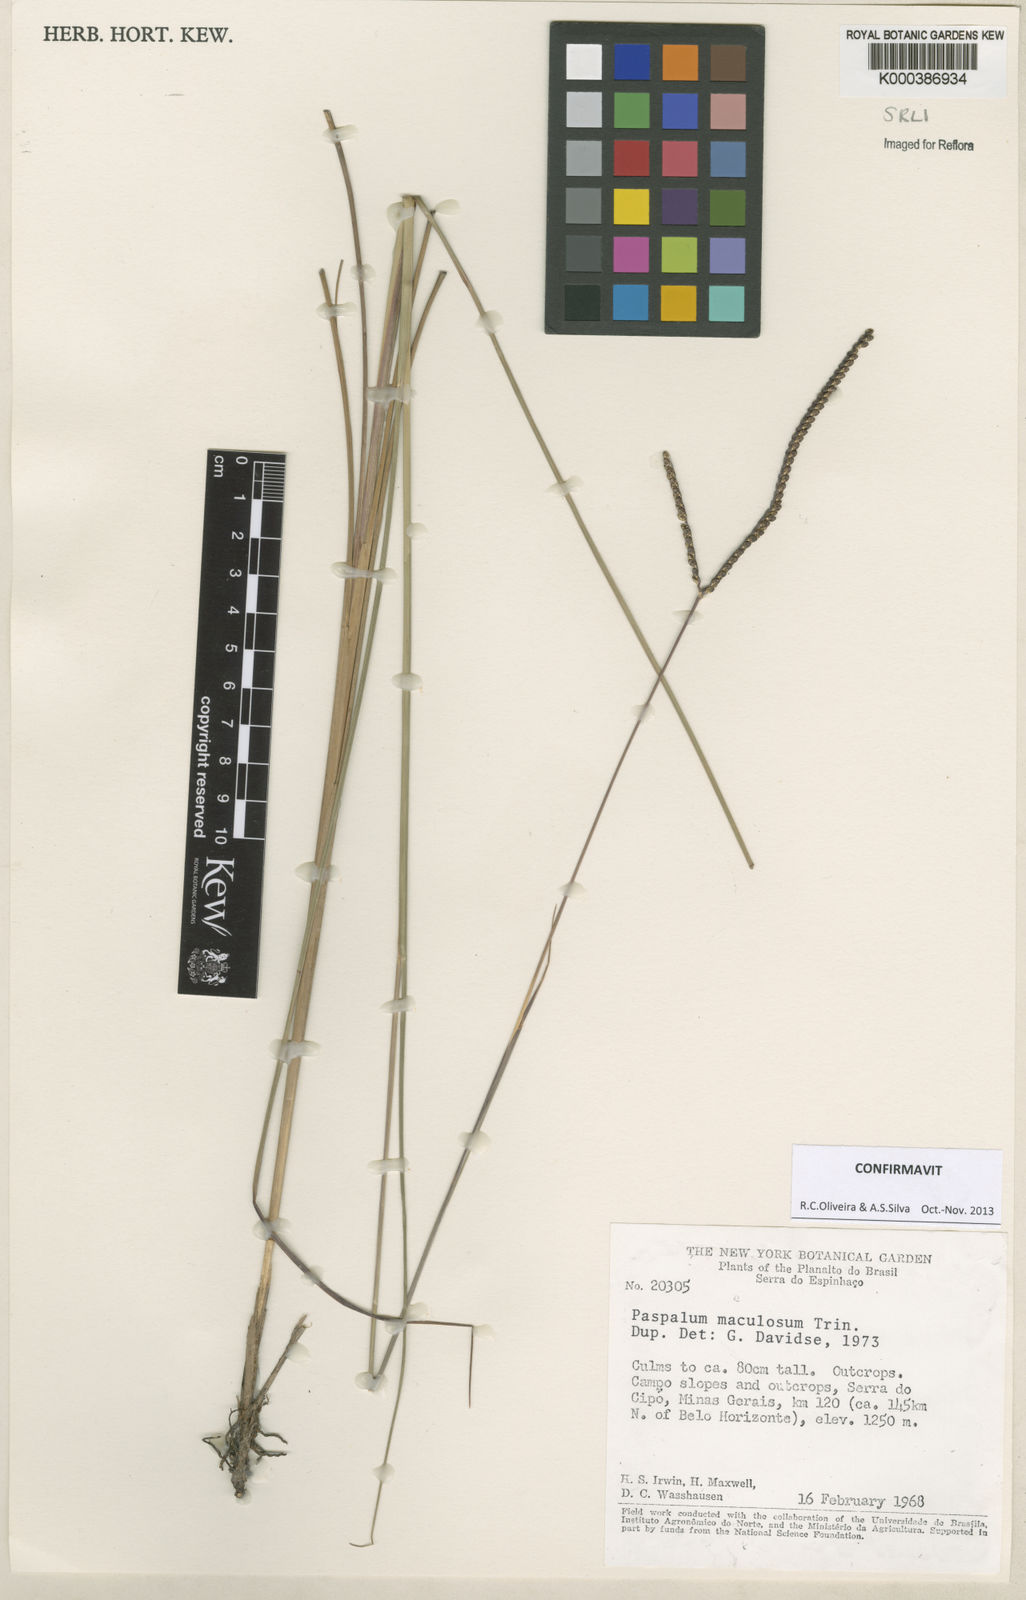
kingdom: Plantae
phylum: Tracheophyta
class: Liliopsida
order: Poales
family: Poaceae
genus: Paspalum
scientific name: Paspalum maculosum
